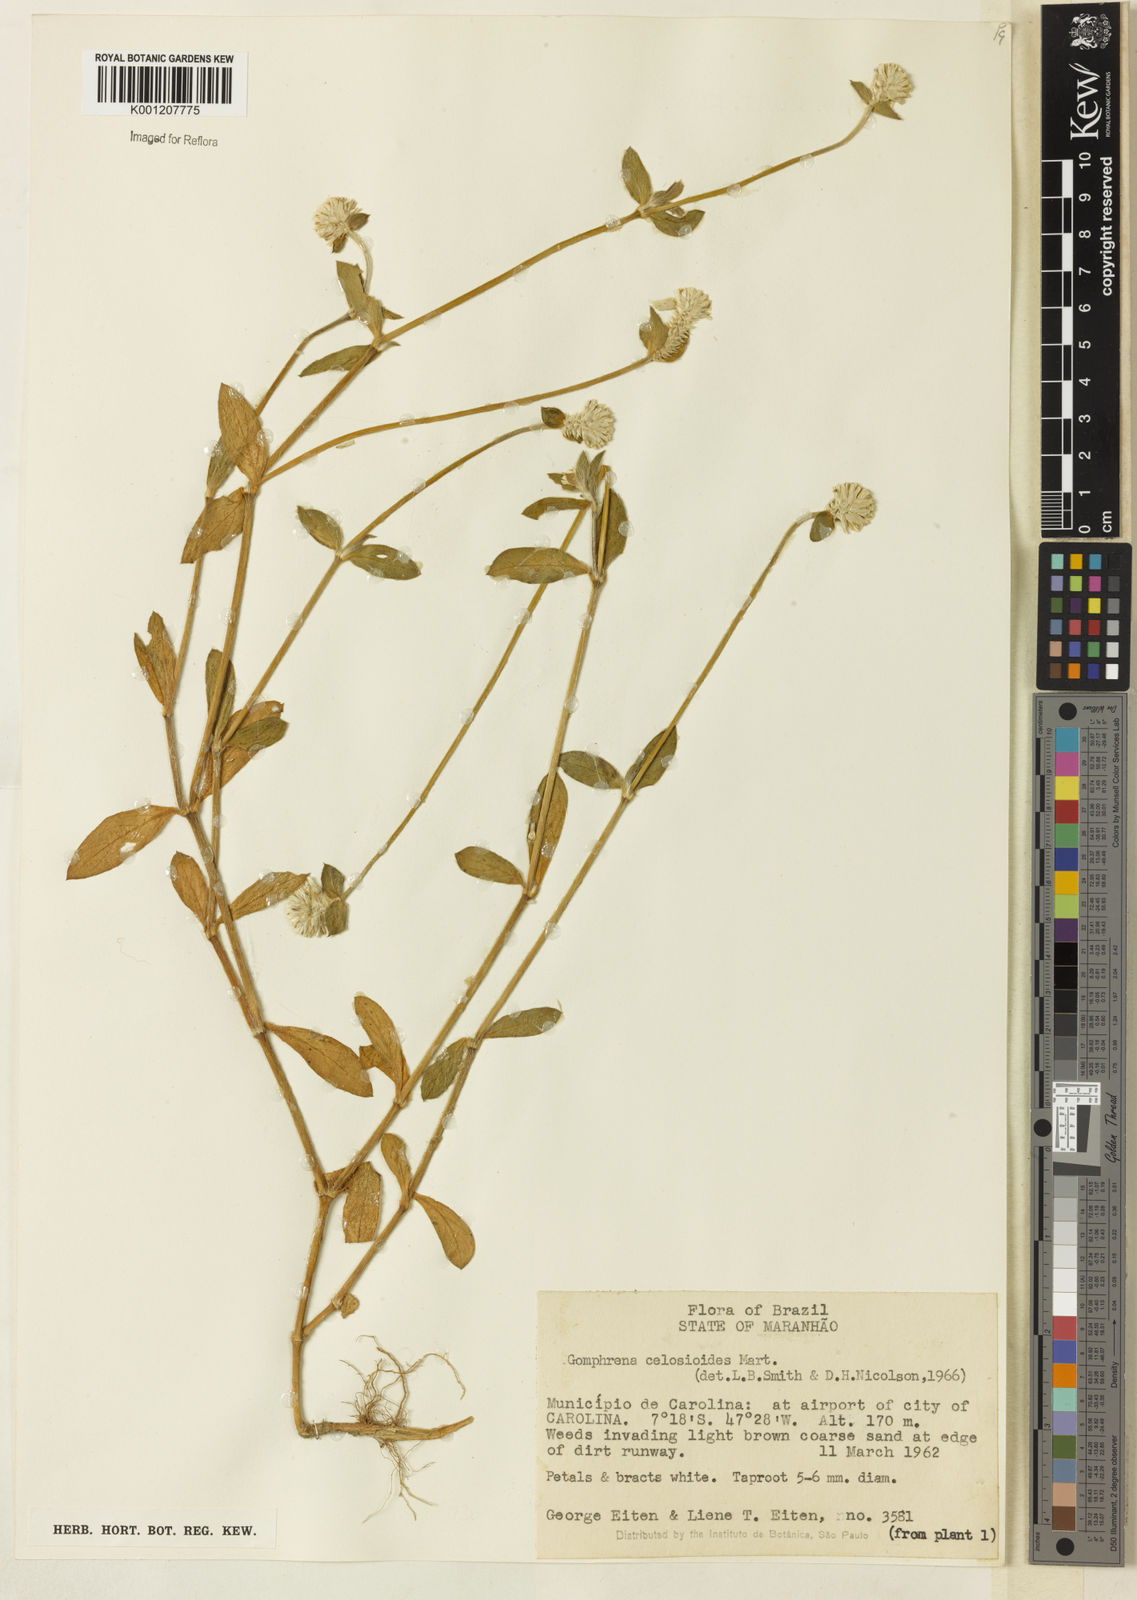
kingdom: Plantae
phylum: Tracheophyta
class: Magnoliopsida
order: Caryophyllales
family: Amaranthaceae
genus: Gomphrena
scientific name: Gomphrena celosioides
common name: Gomphrena-weed
